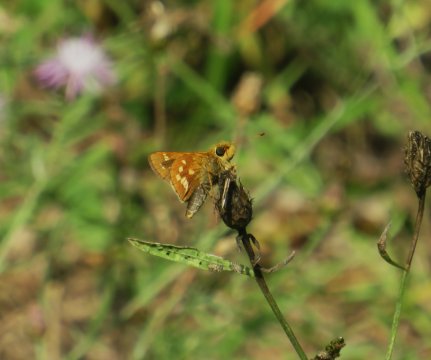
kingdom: Animalia
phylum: Arthropoda
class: Insecta
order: Lepidoptera
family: Hesperiidae
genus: Hesperia
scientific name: Hesperia leonardus
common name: Leonard's Skipper
